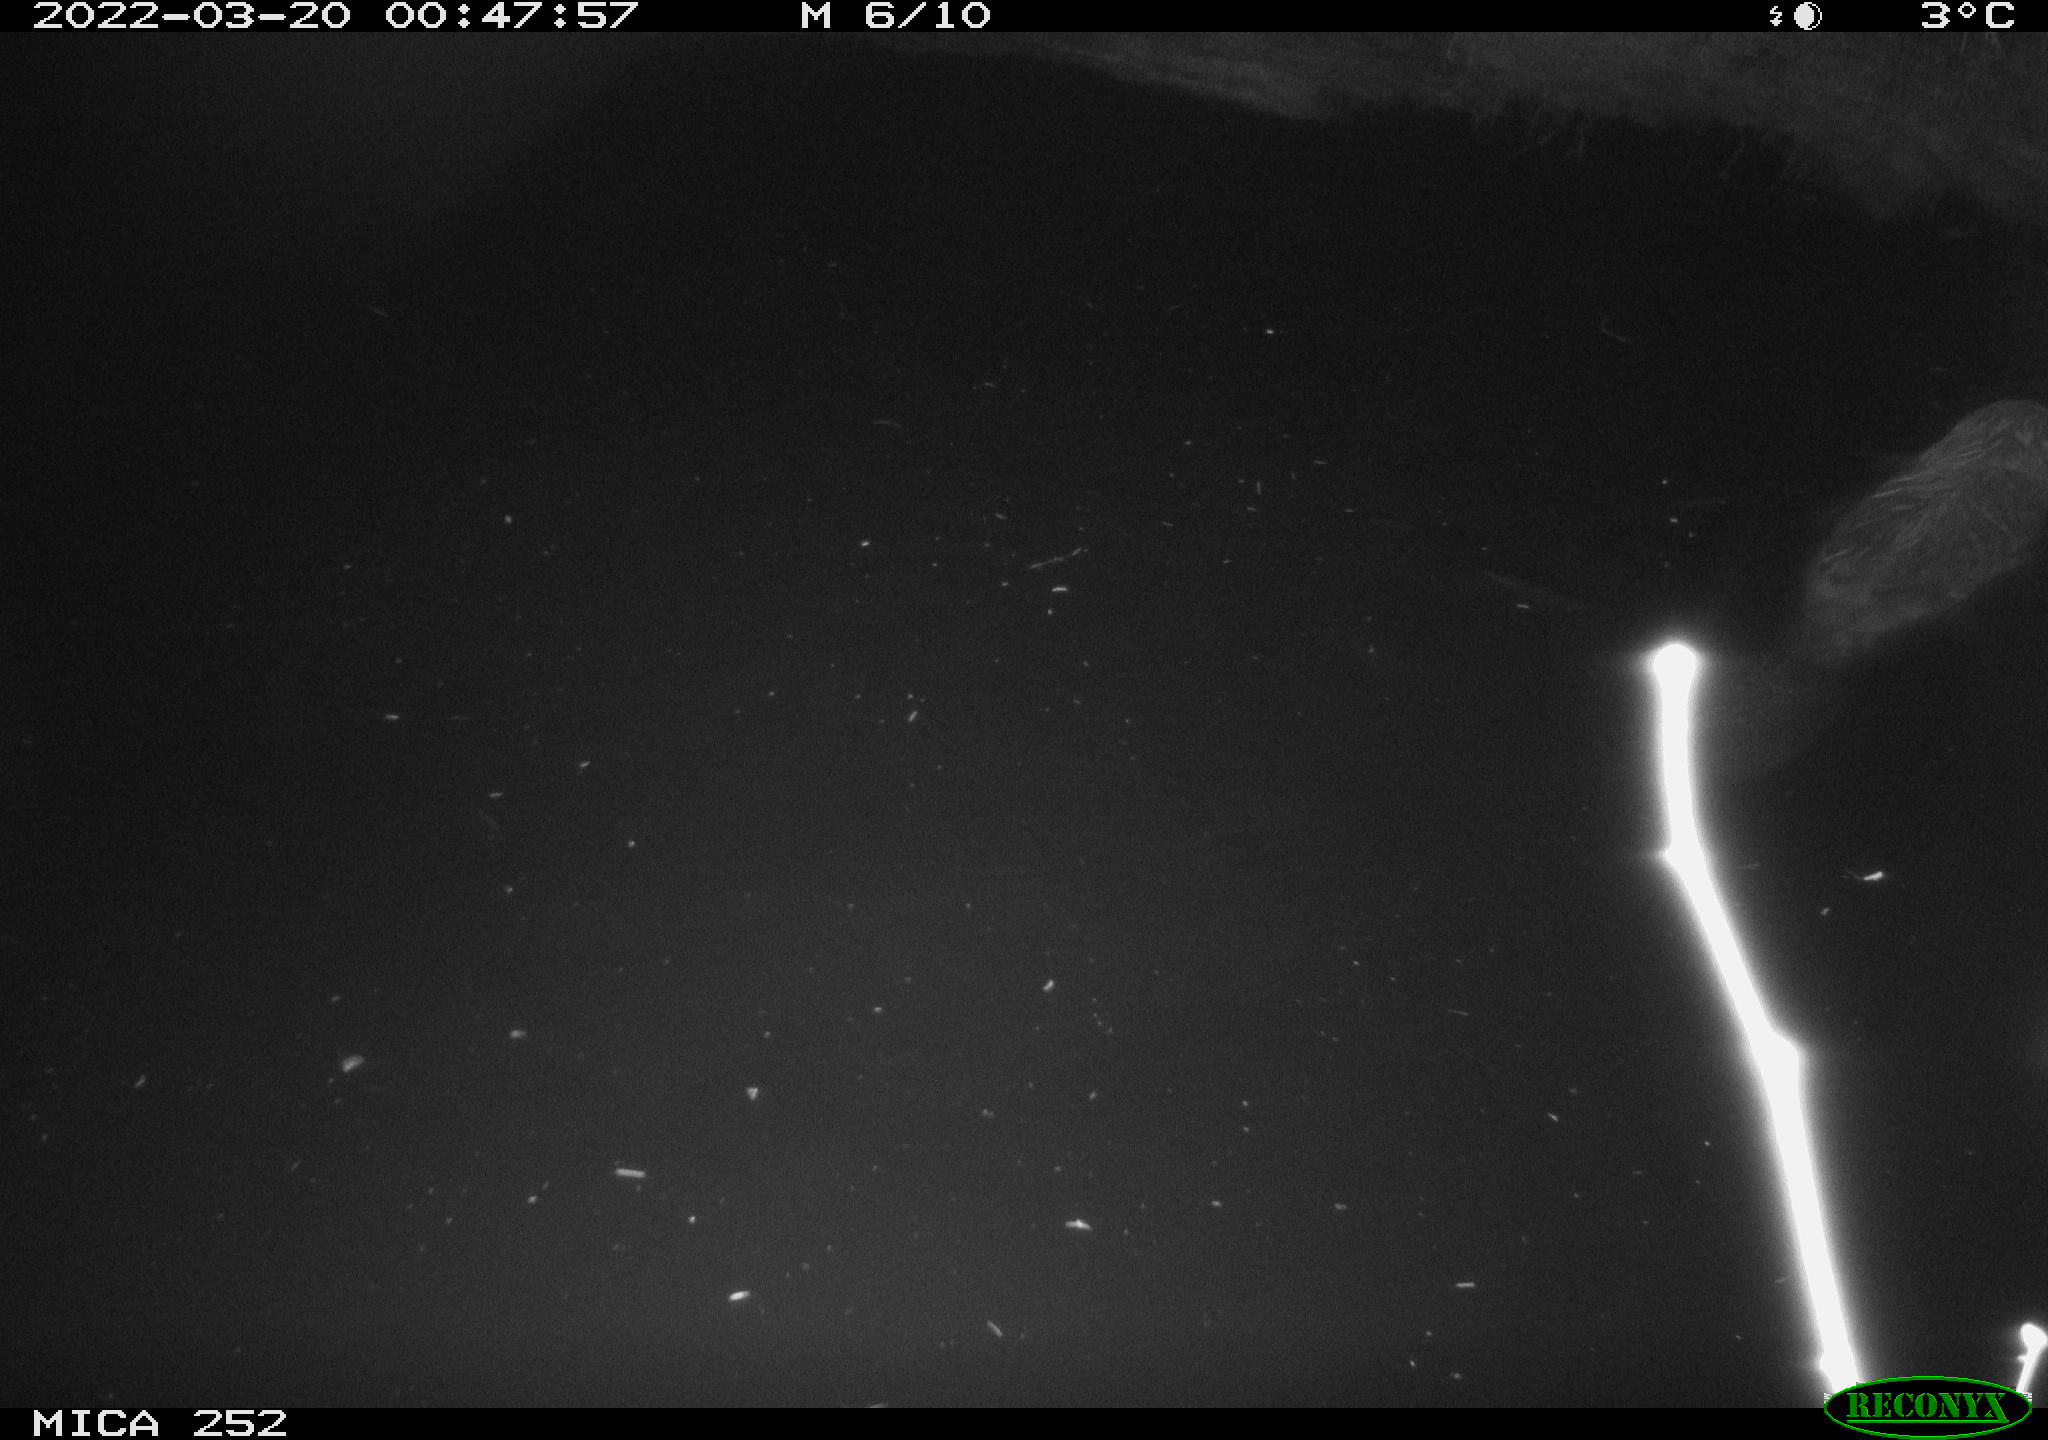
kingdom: Animalia
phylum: Chordata
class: Mammalia
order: Rodentia
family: Castoridae
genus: Castor
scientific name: Castor fiber
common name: Eurasian beaver
